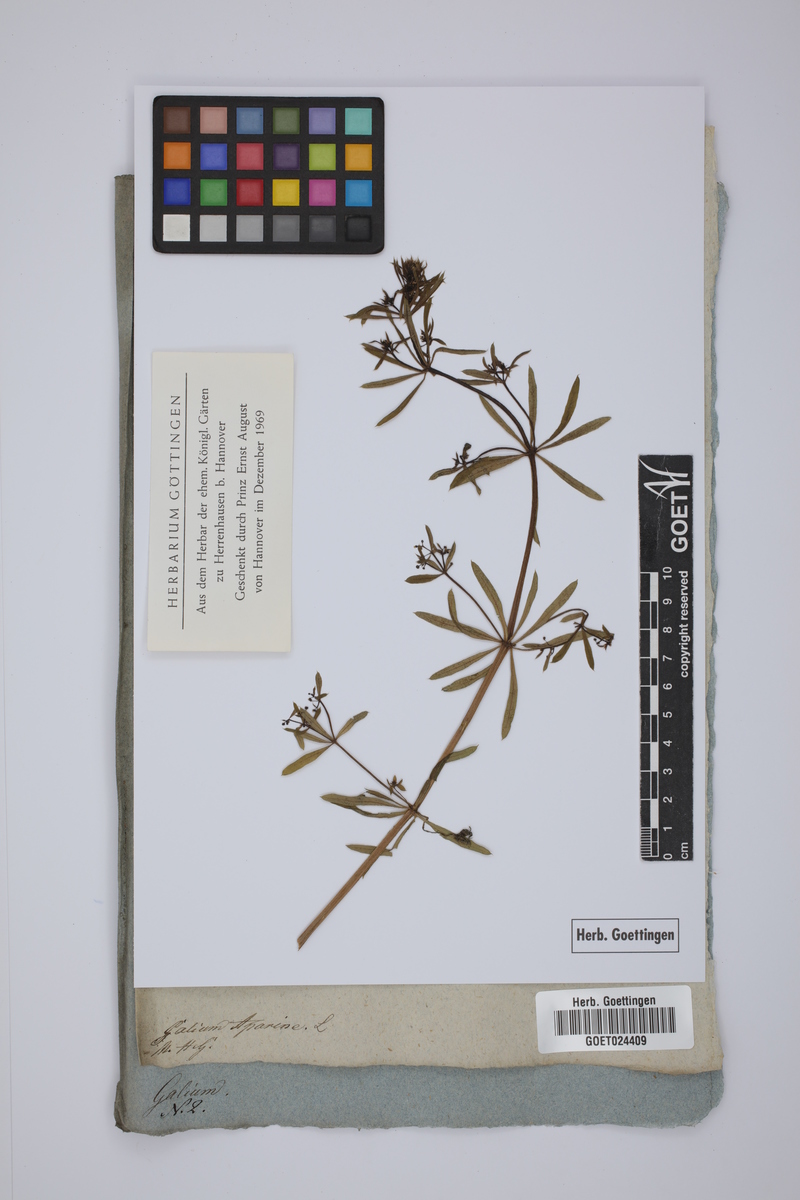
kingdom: Plantae
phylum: Tracheophyta
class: Magnoliopsida
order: Gentianales
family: Rubiaceae
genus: Galium
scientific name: Galium aparine
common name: Cleavers
